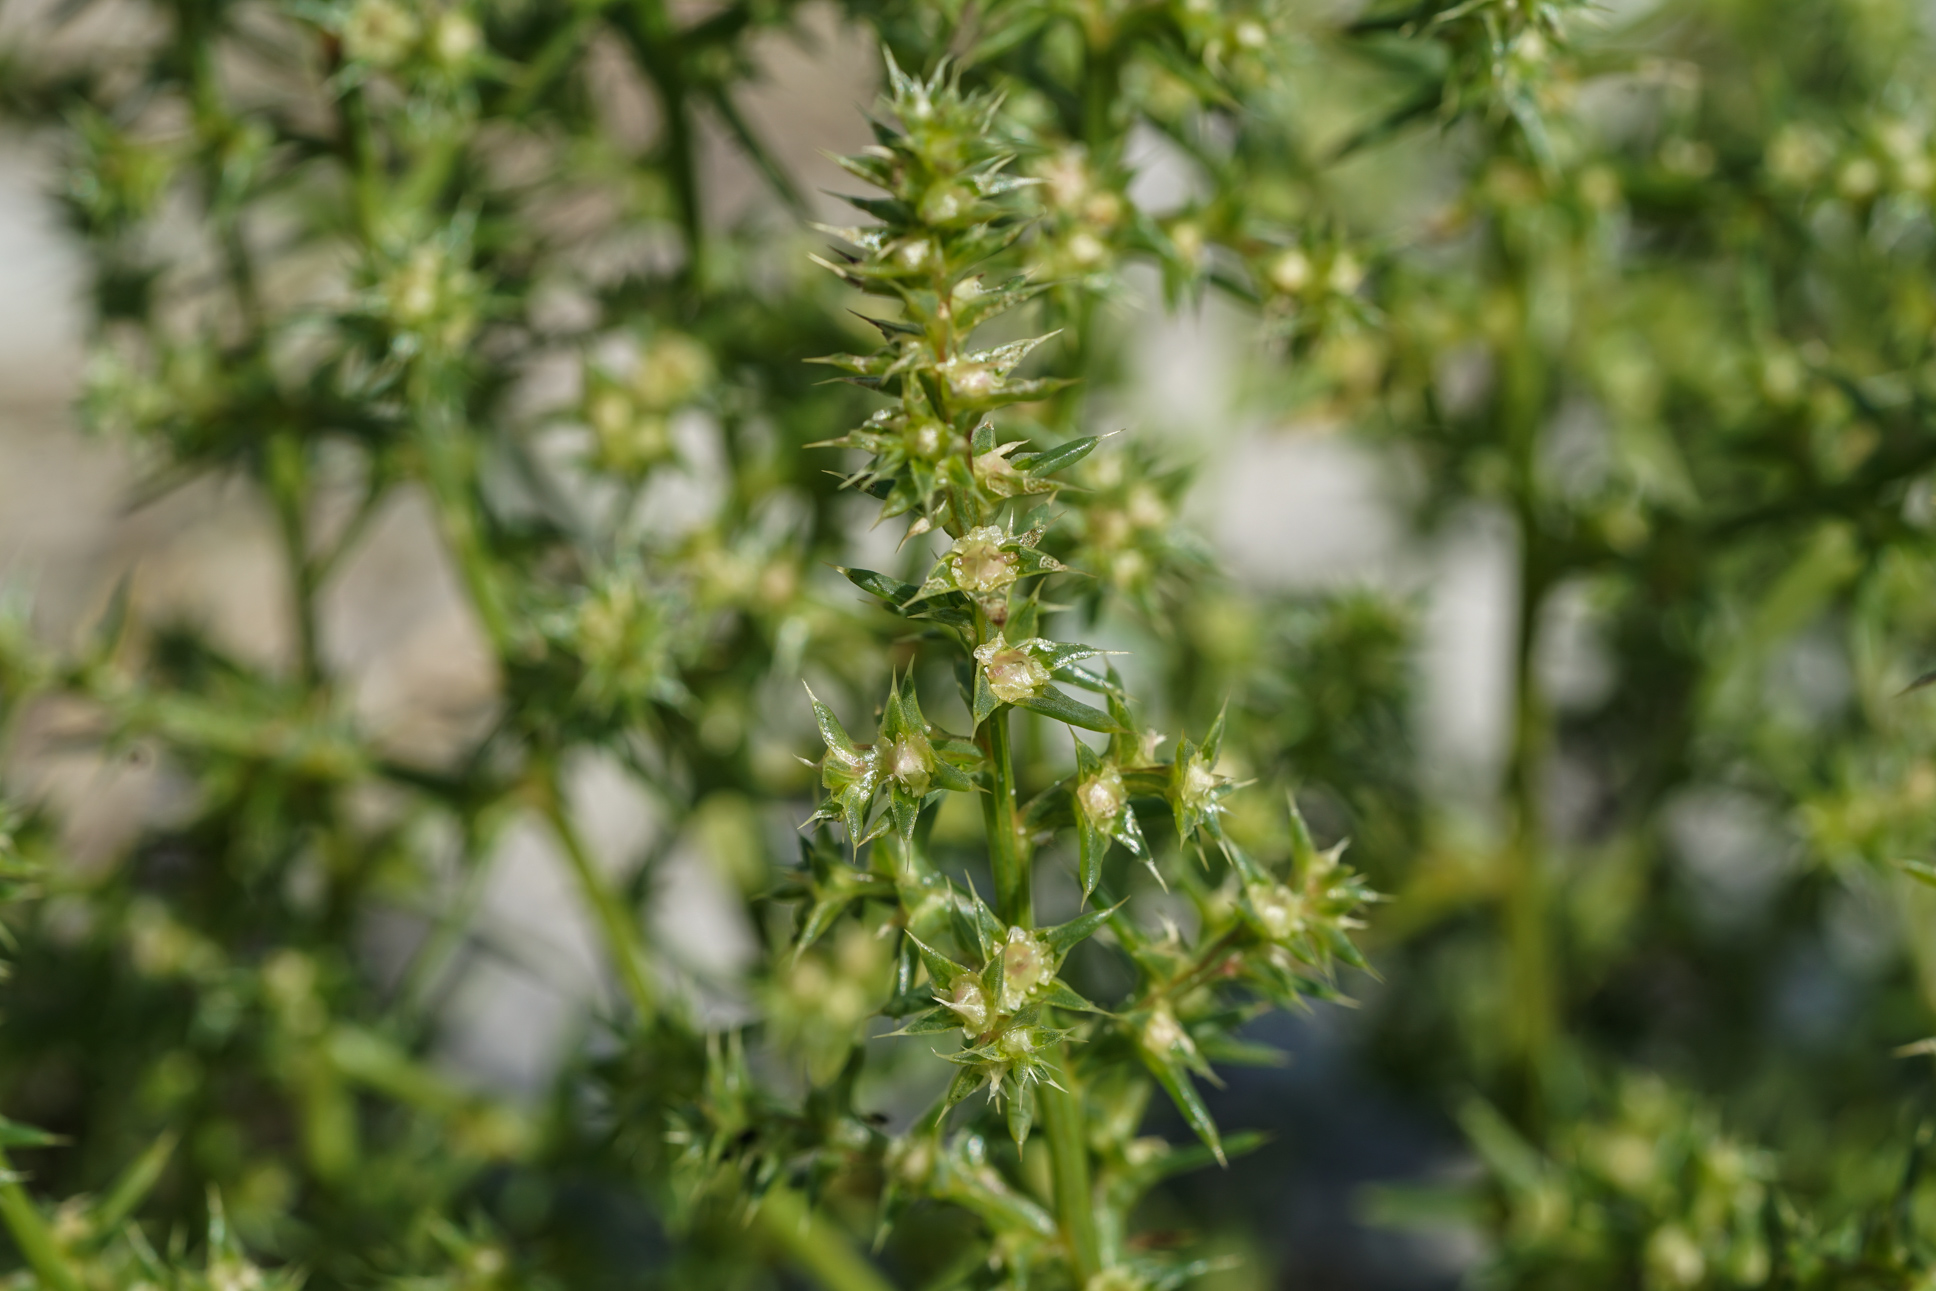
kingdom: Plantae
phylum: Tracheophyta
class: Magnoliopsida
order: Caryophyllales
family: Amaranthaceae
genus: Salsola
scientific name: Salsola kali
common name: Saltwort
